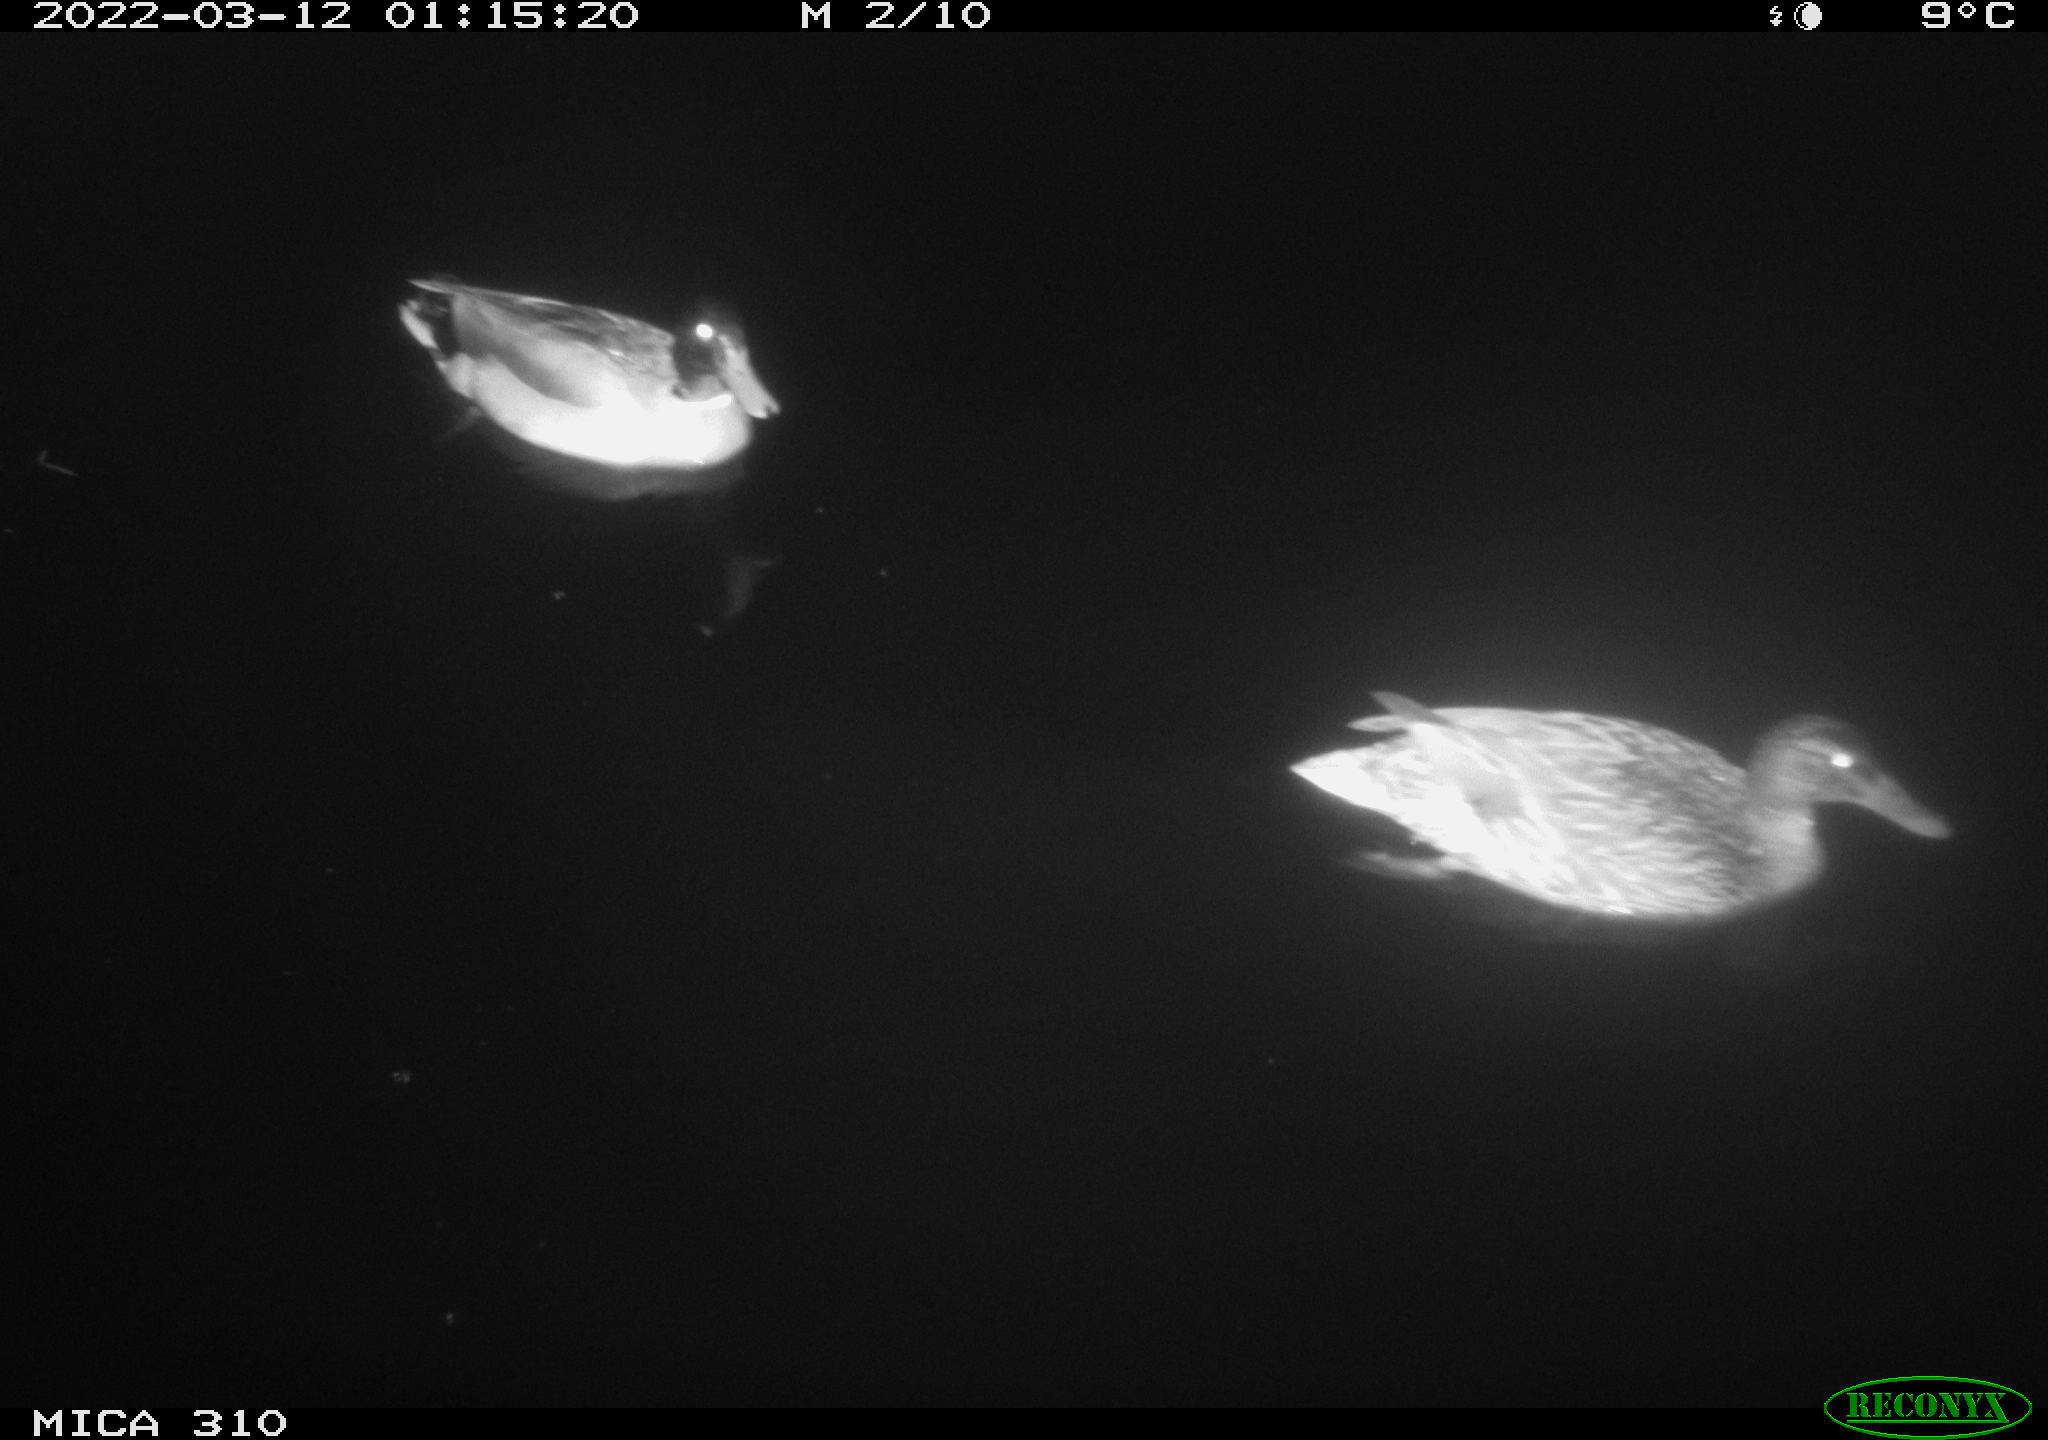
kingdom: Animalia
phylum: Chordata
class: Aves
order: Anseriformes
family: Anatidae
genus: Anas
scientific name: Anas platyrhynchos
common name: Mallard
